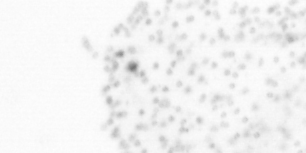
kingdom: Chromista
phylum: Ochrophyta
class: Bacillariophyceae
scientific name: Bacillariophyceae
